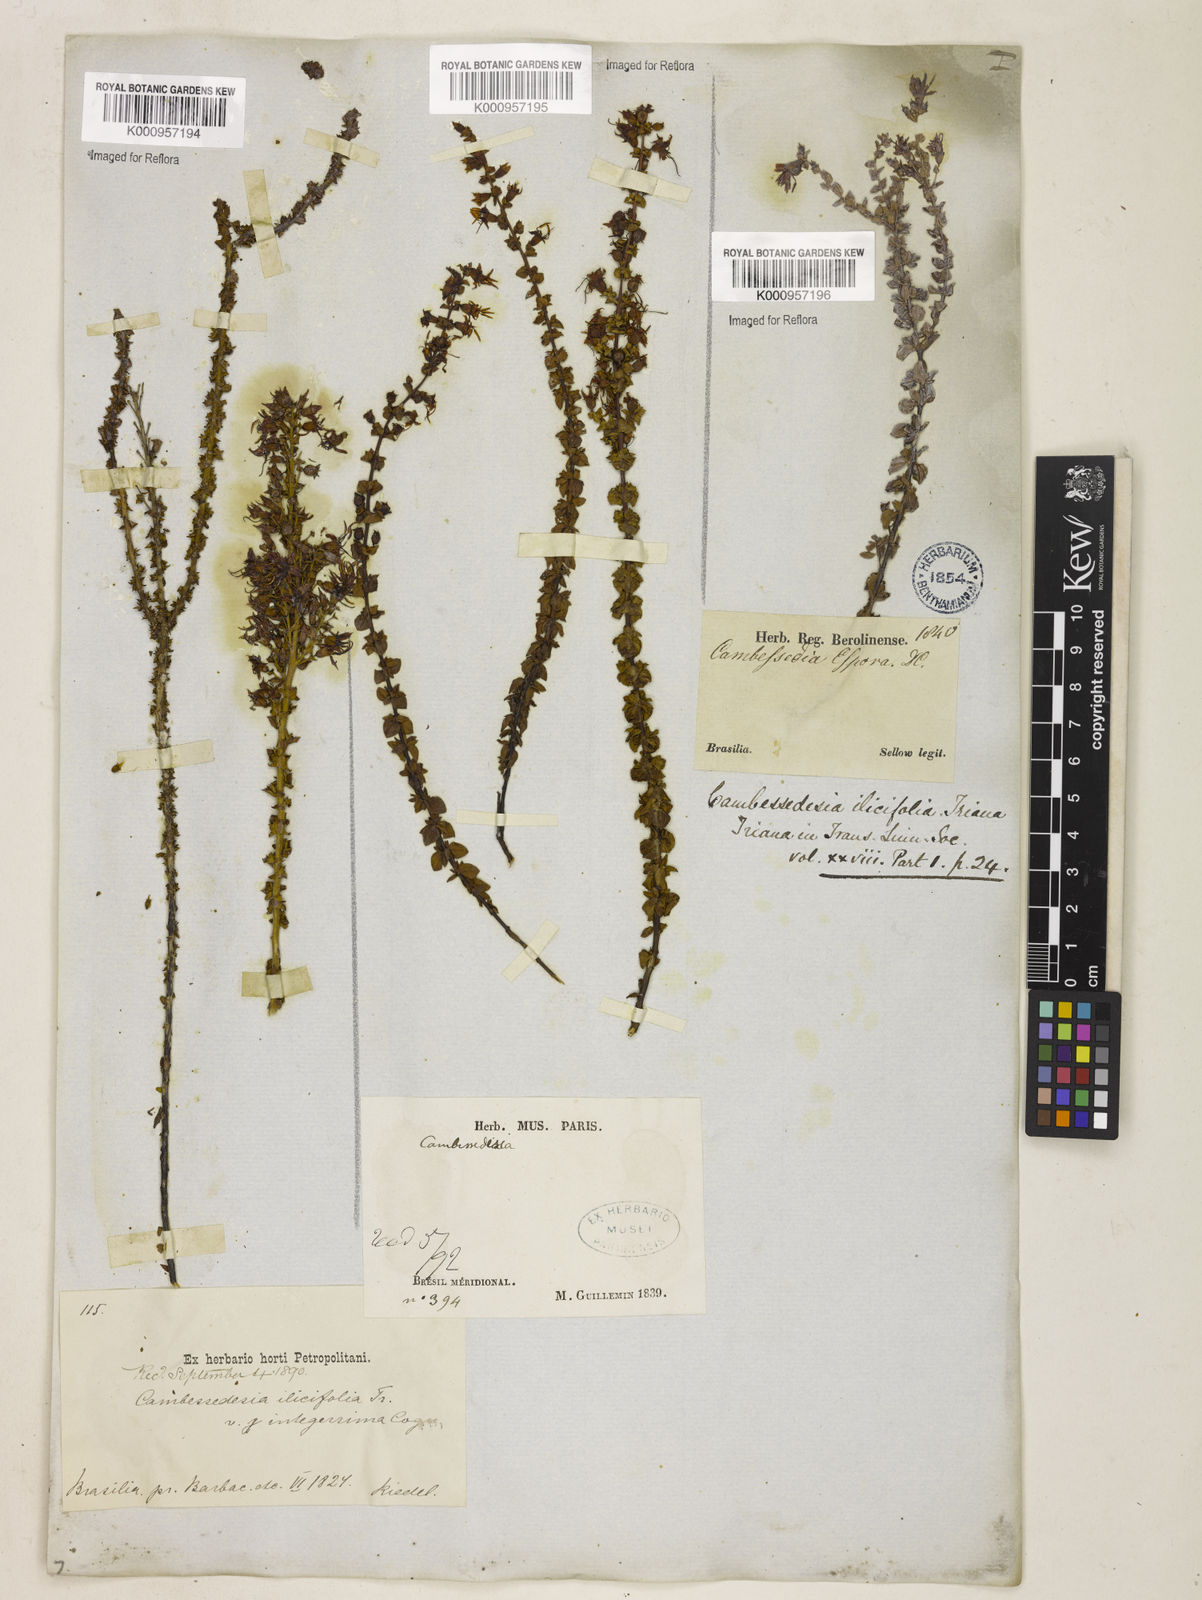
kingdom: Plantae
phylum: Tracheophyta
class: Magnoliopsida
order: Myrtales
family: Melastomataceae
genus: Cambessedesia
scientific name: Cambessedesia espora
